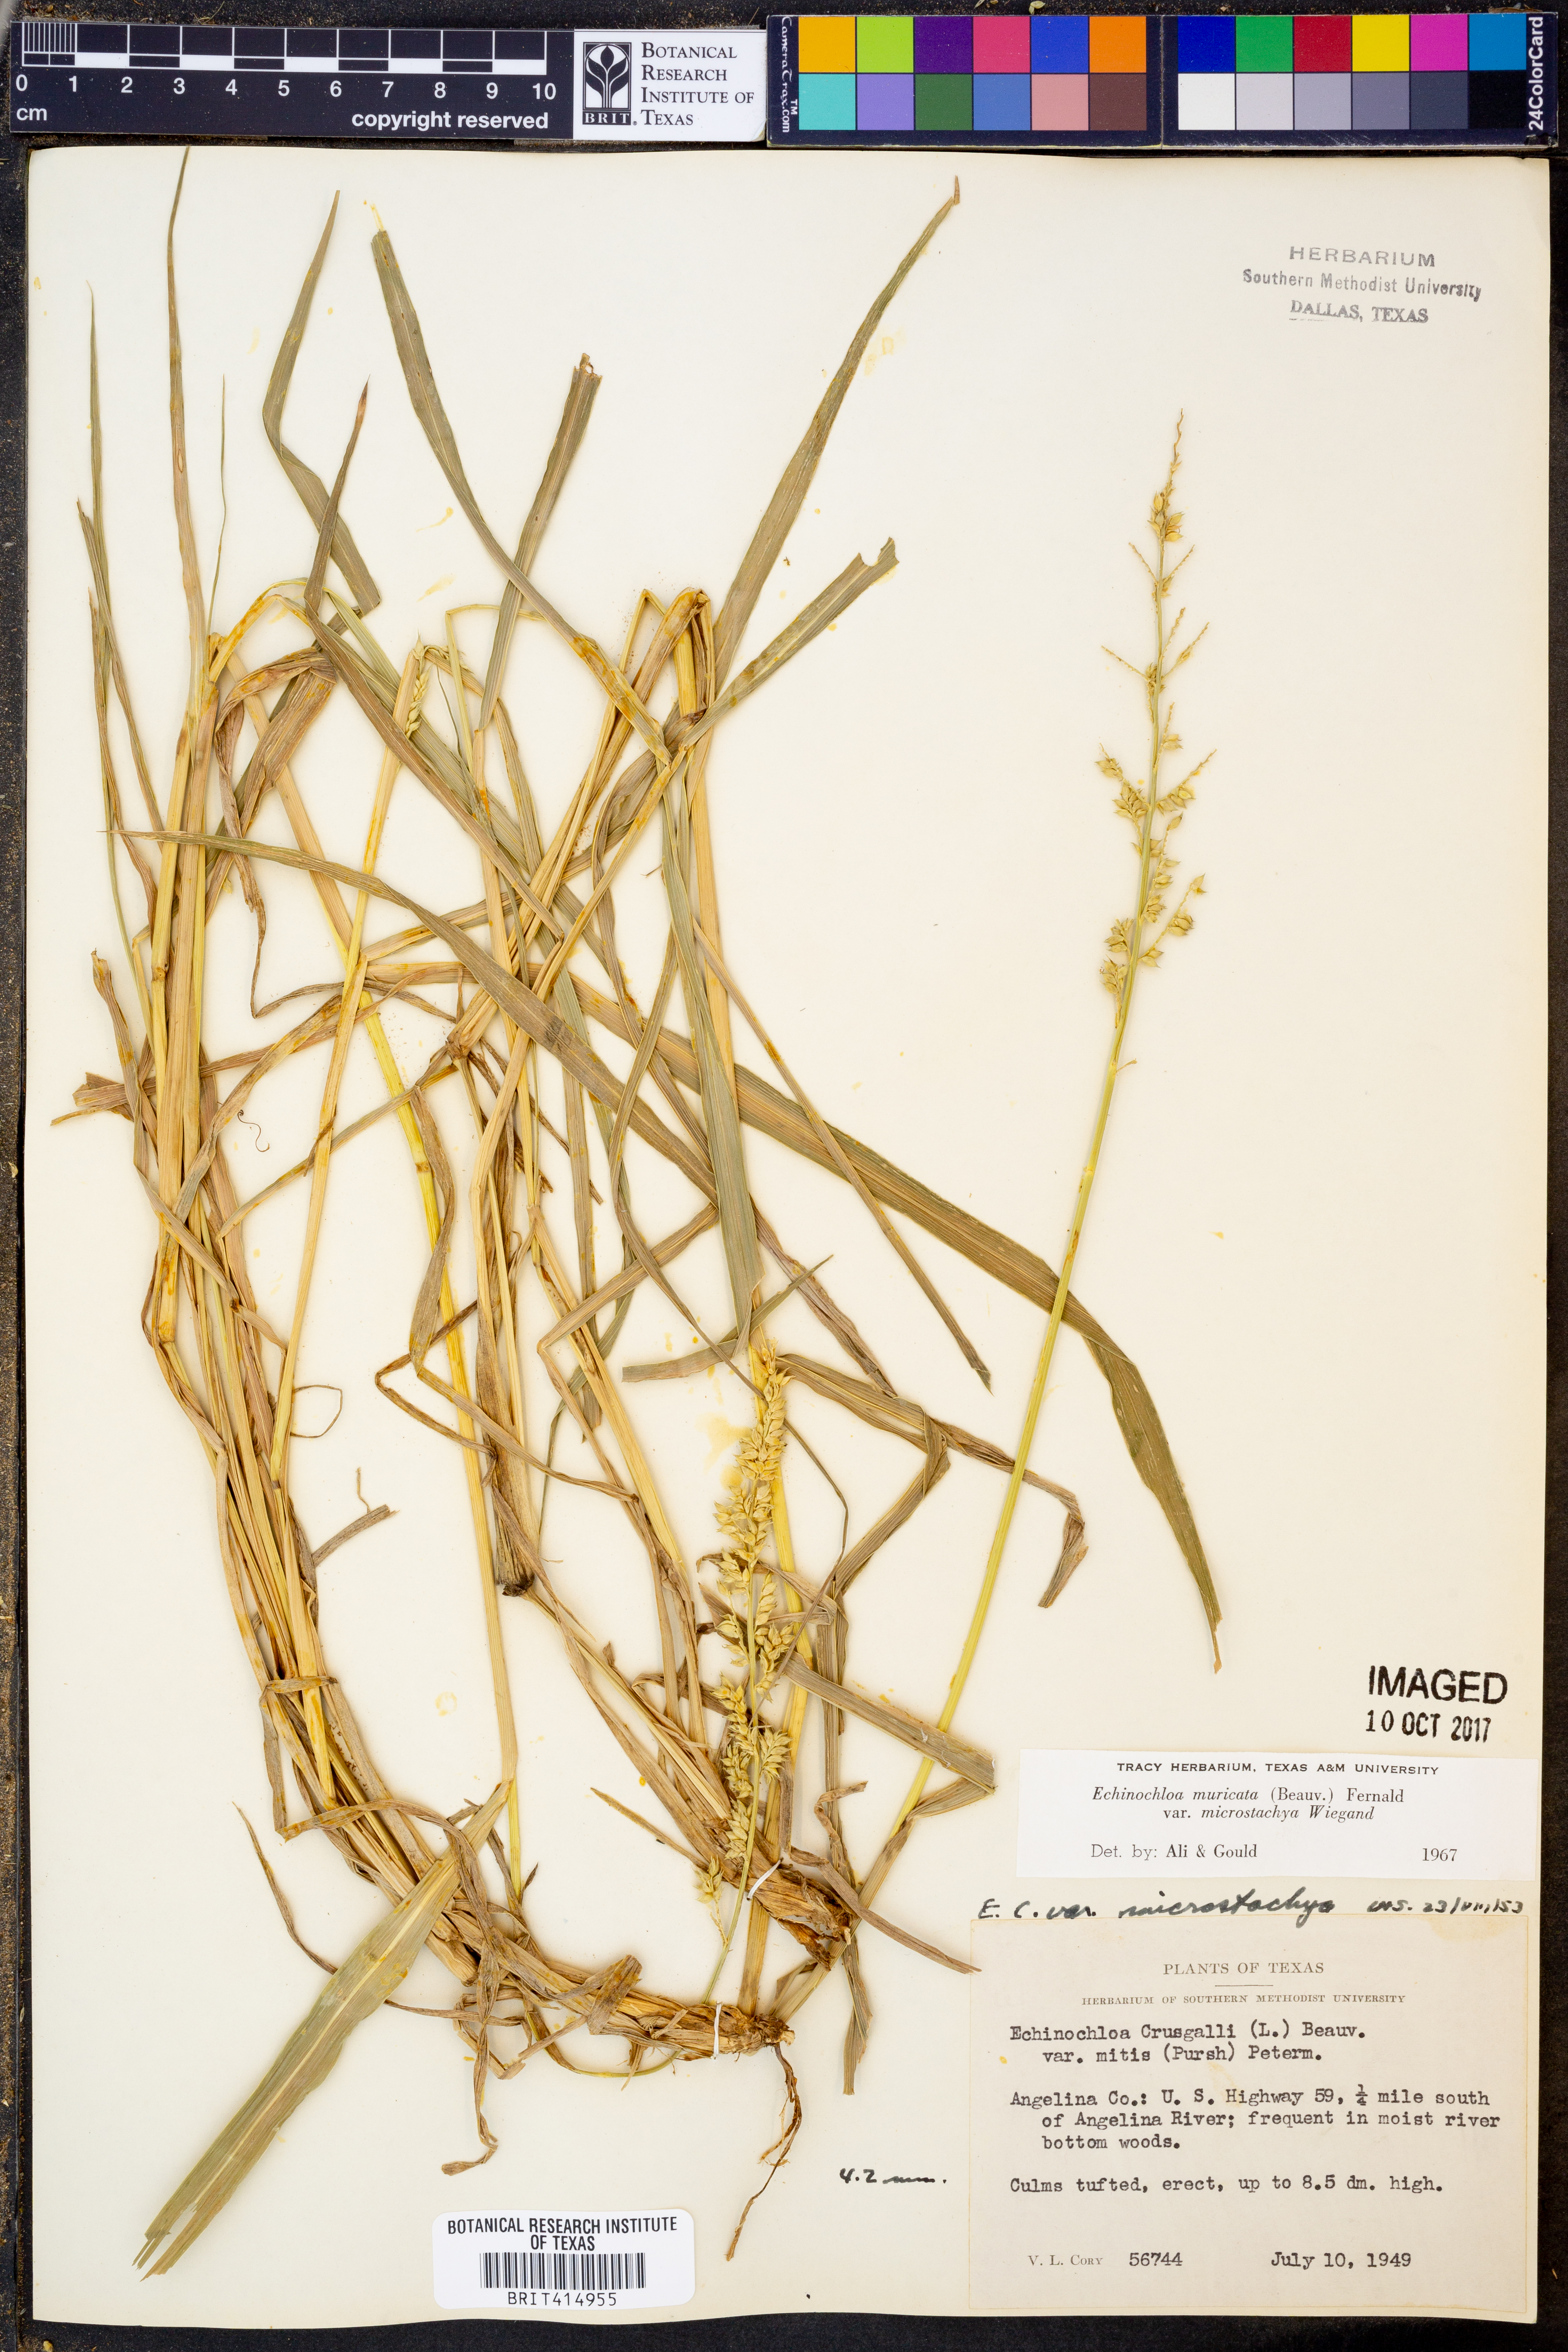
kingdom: Plantae
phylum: Tracheophyta
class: Liliopsida
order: Poales
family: Poaceae
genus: Echinochloa
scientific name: Echinochloa muricata
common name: American barnyard grass
